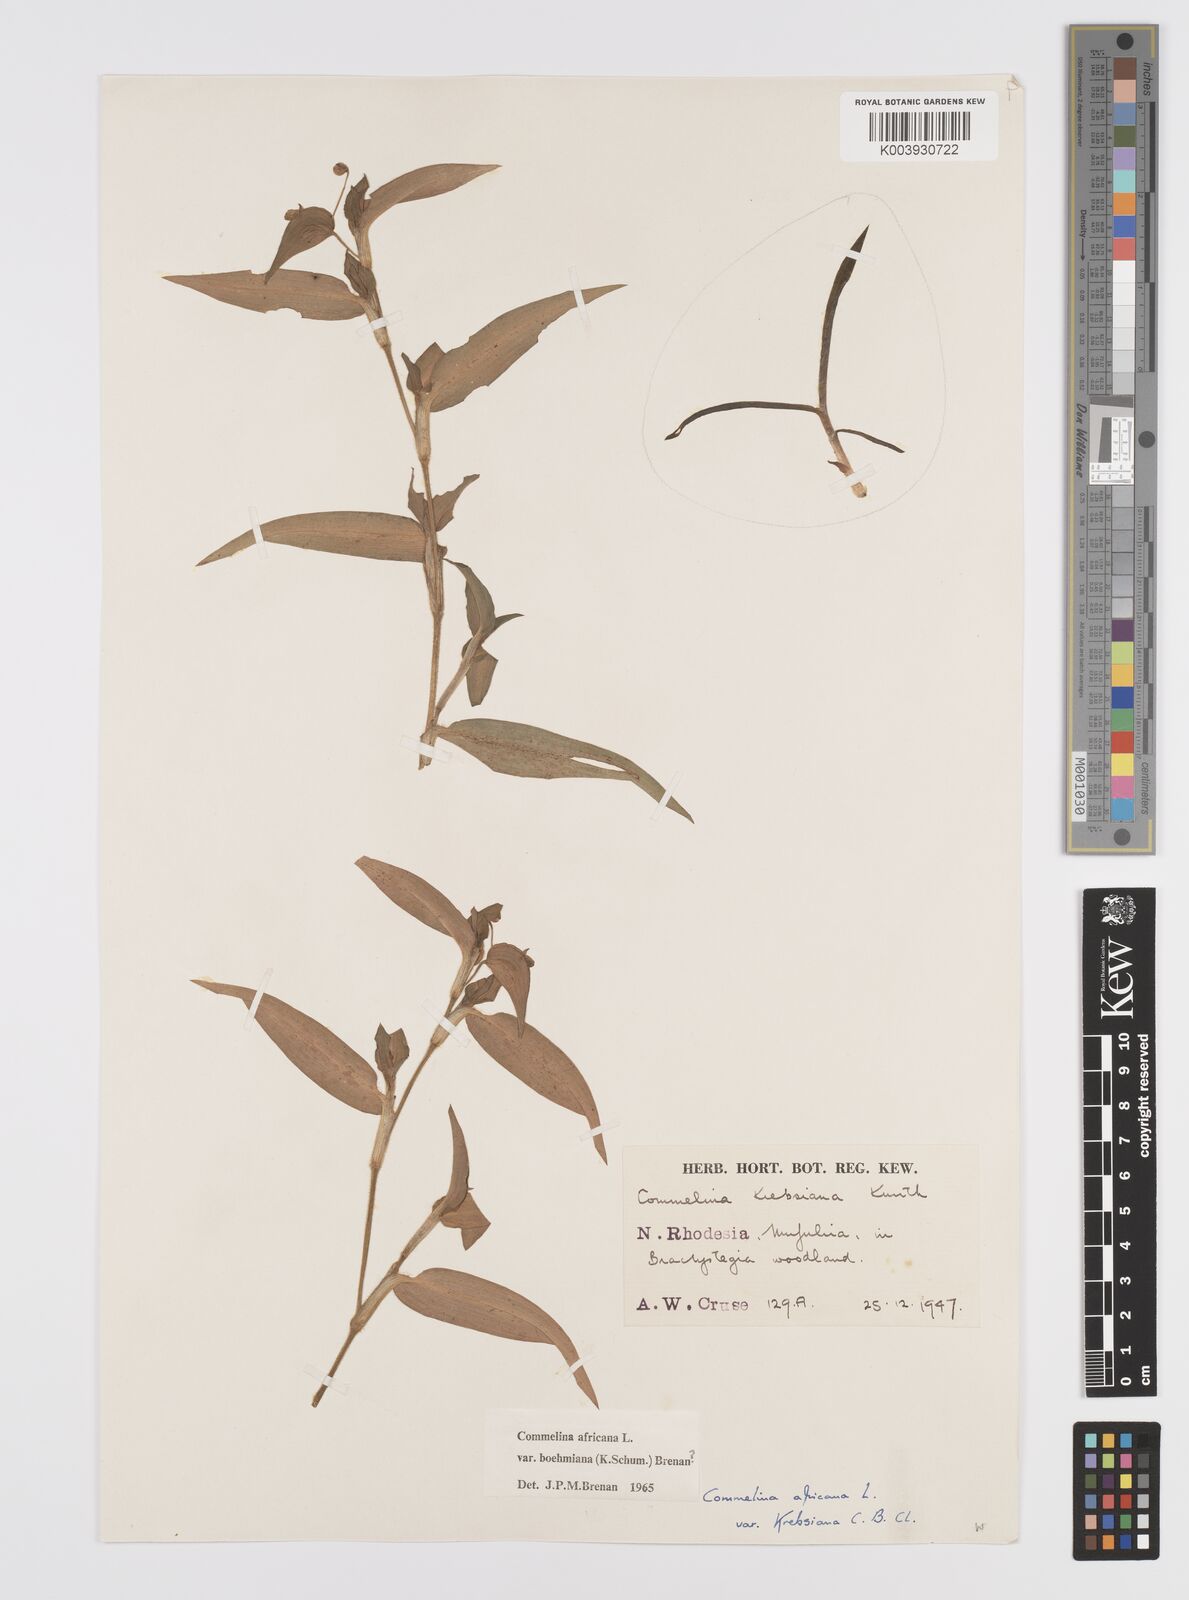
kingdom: Plantae
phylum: Tracheophyta
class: Liliopsida
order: Commelinales
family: Commelinaceae
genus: Commelina
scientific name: Commelina africana
